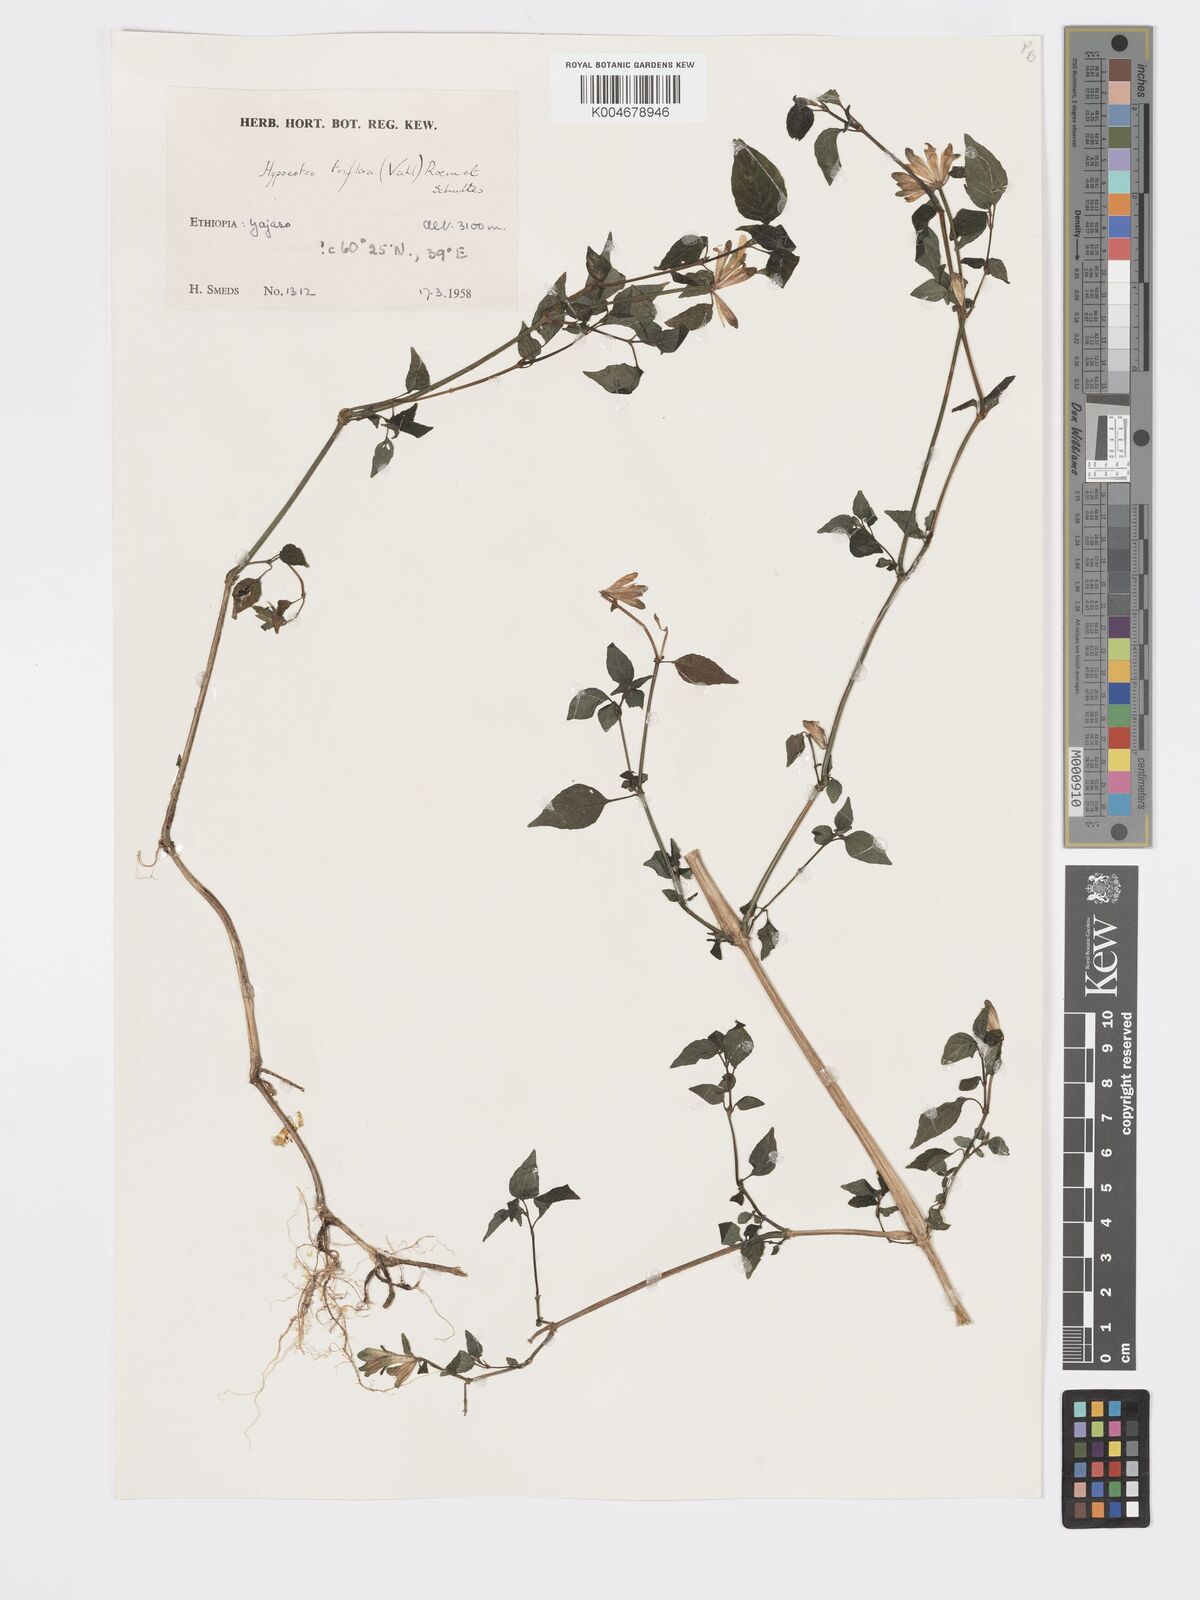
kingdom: Plantae
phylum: Tracheophyta
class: Magnoliopsida
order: Lamiales
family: Acanthaceae
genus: Hypoestes
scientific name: Hypoestes triflora
